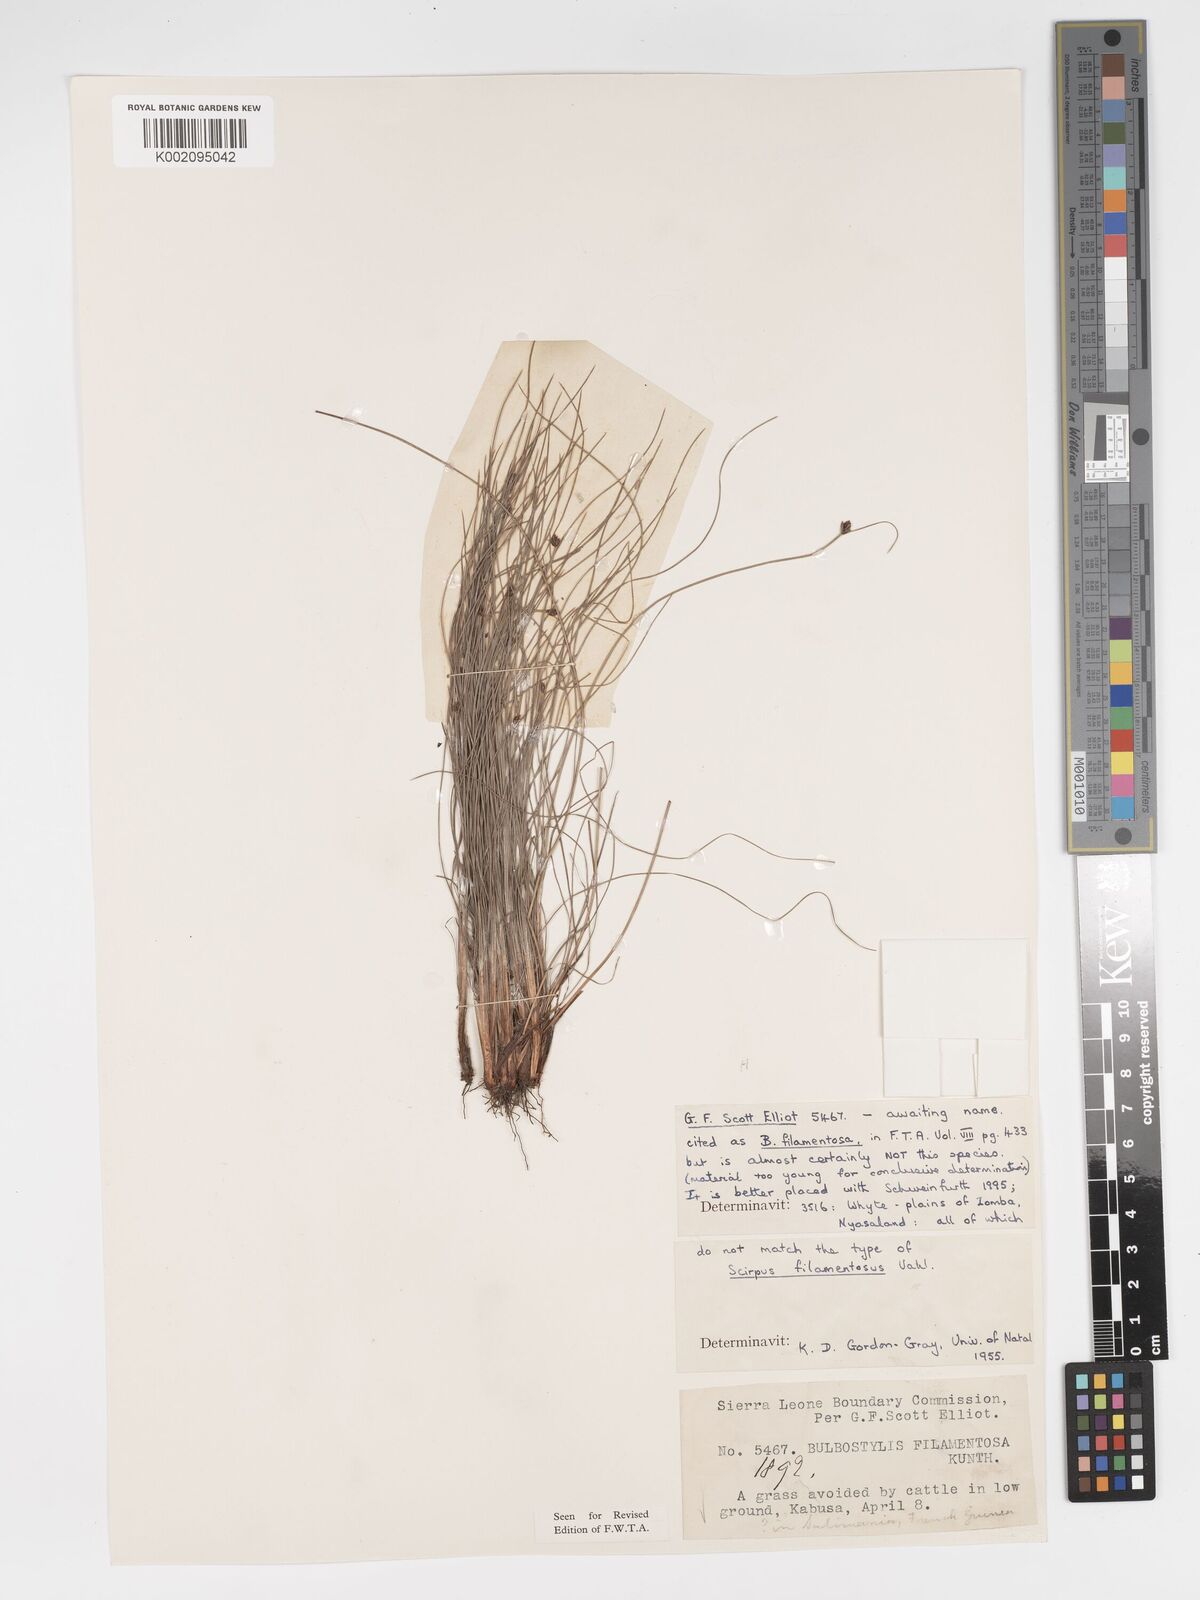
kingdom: Plantae
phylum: Tracheophyta
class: Liliopsida
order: Poales
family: Cyperaceae
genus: Bulbostylis
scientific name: Bulbostylis scabricaulis
